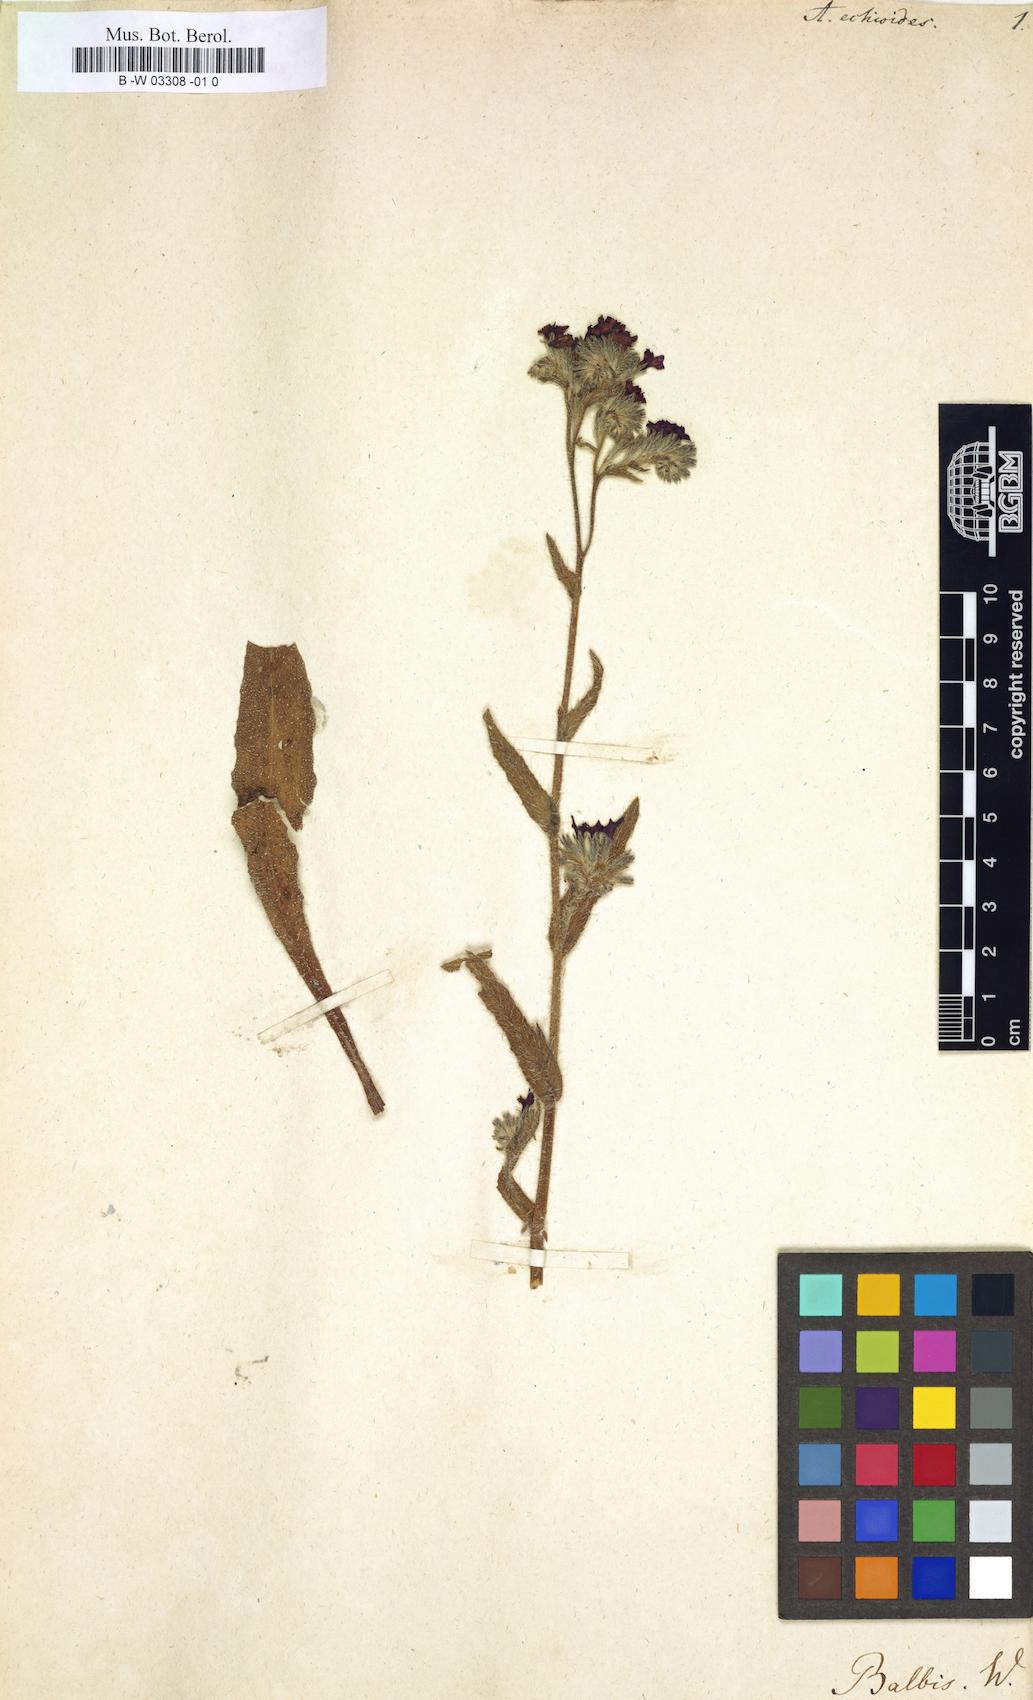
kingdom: Plantae
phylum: Tracheophyta
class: Magnoliopsida
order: Boraginales
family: Boraginaceae
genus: Nonea
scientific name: Nonea echioides
